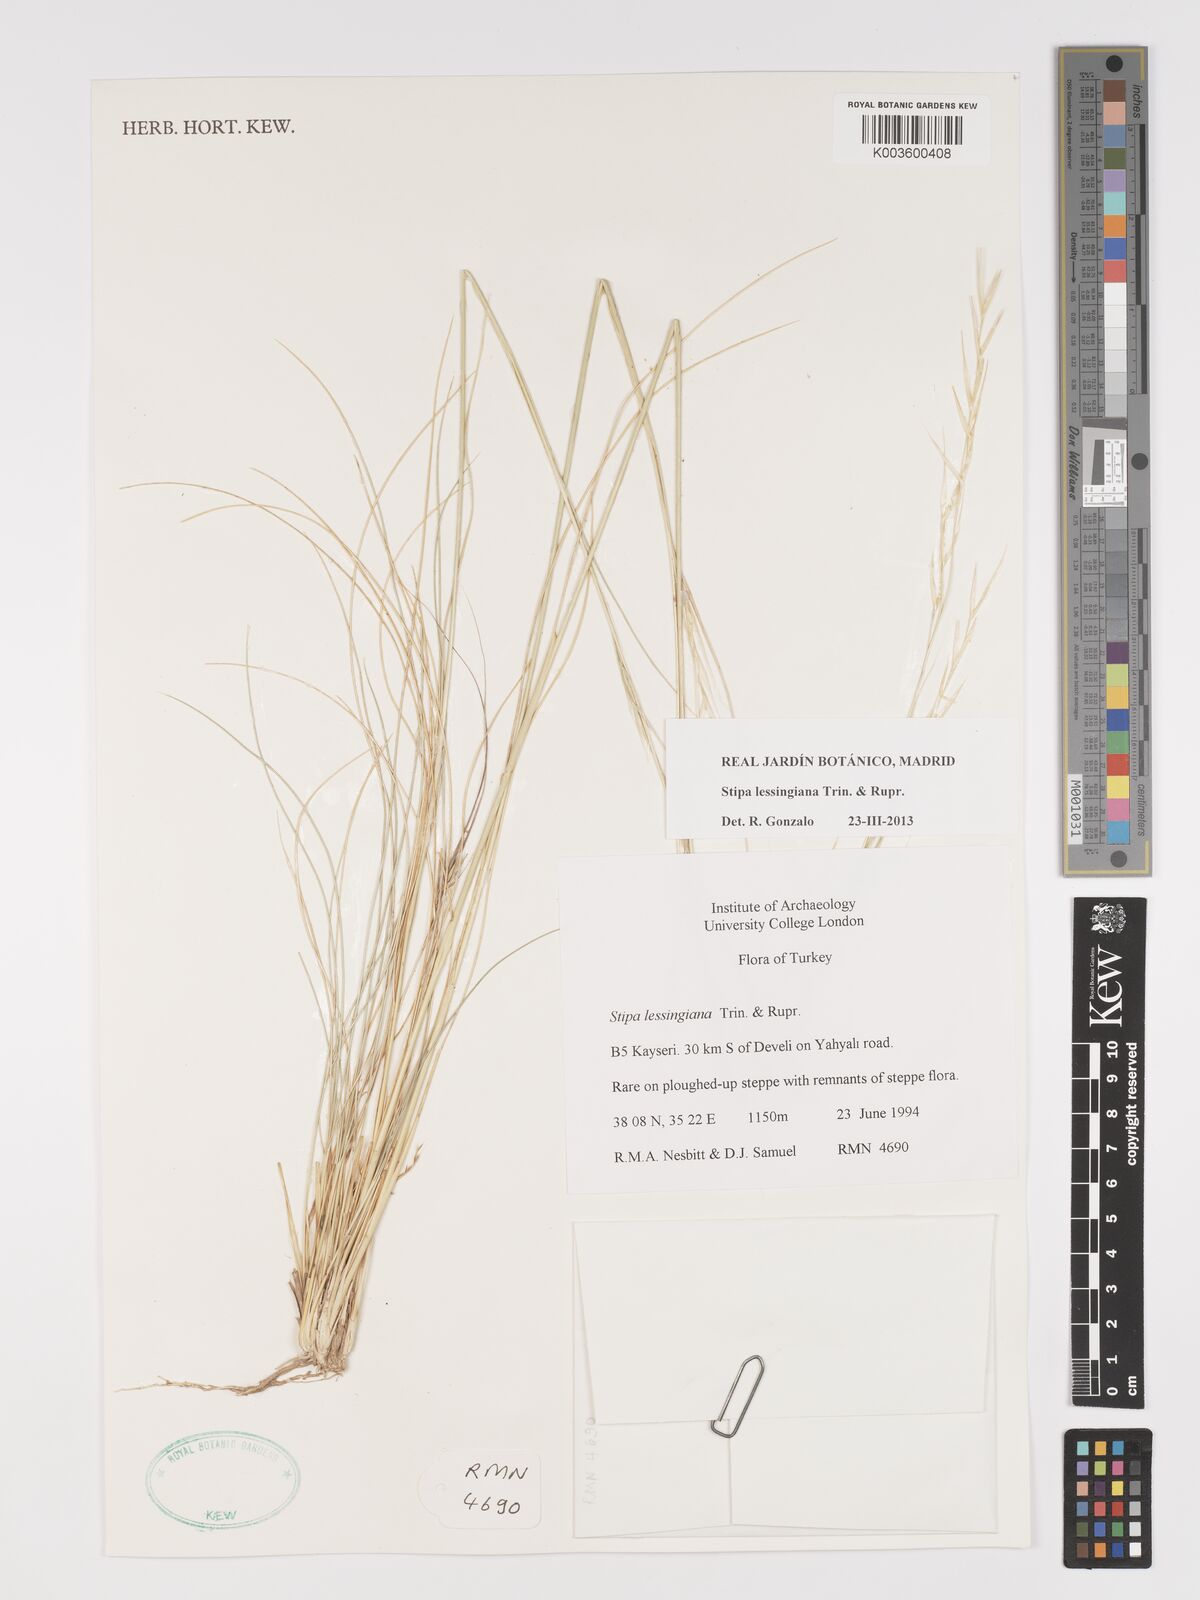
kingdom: Plantae
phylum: Tracheophyta
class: Liliopsida
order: Poales
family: Poaceae
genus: Stipa
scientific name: Stipa lessingiana
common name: Needle grass
